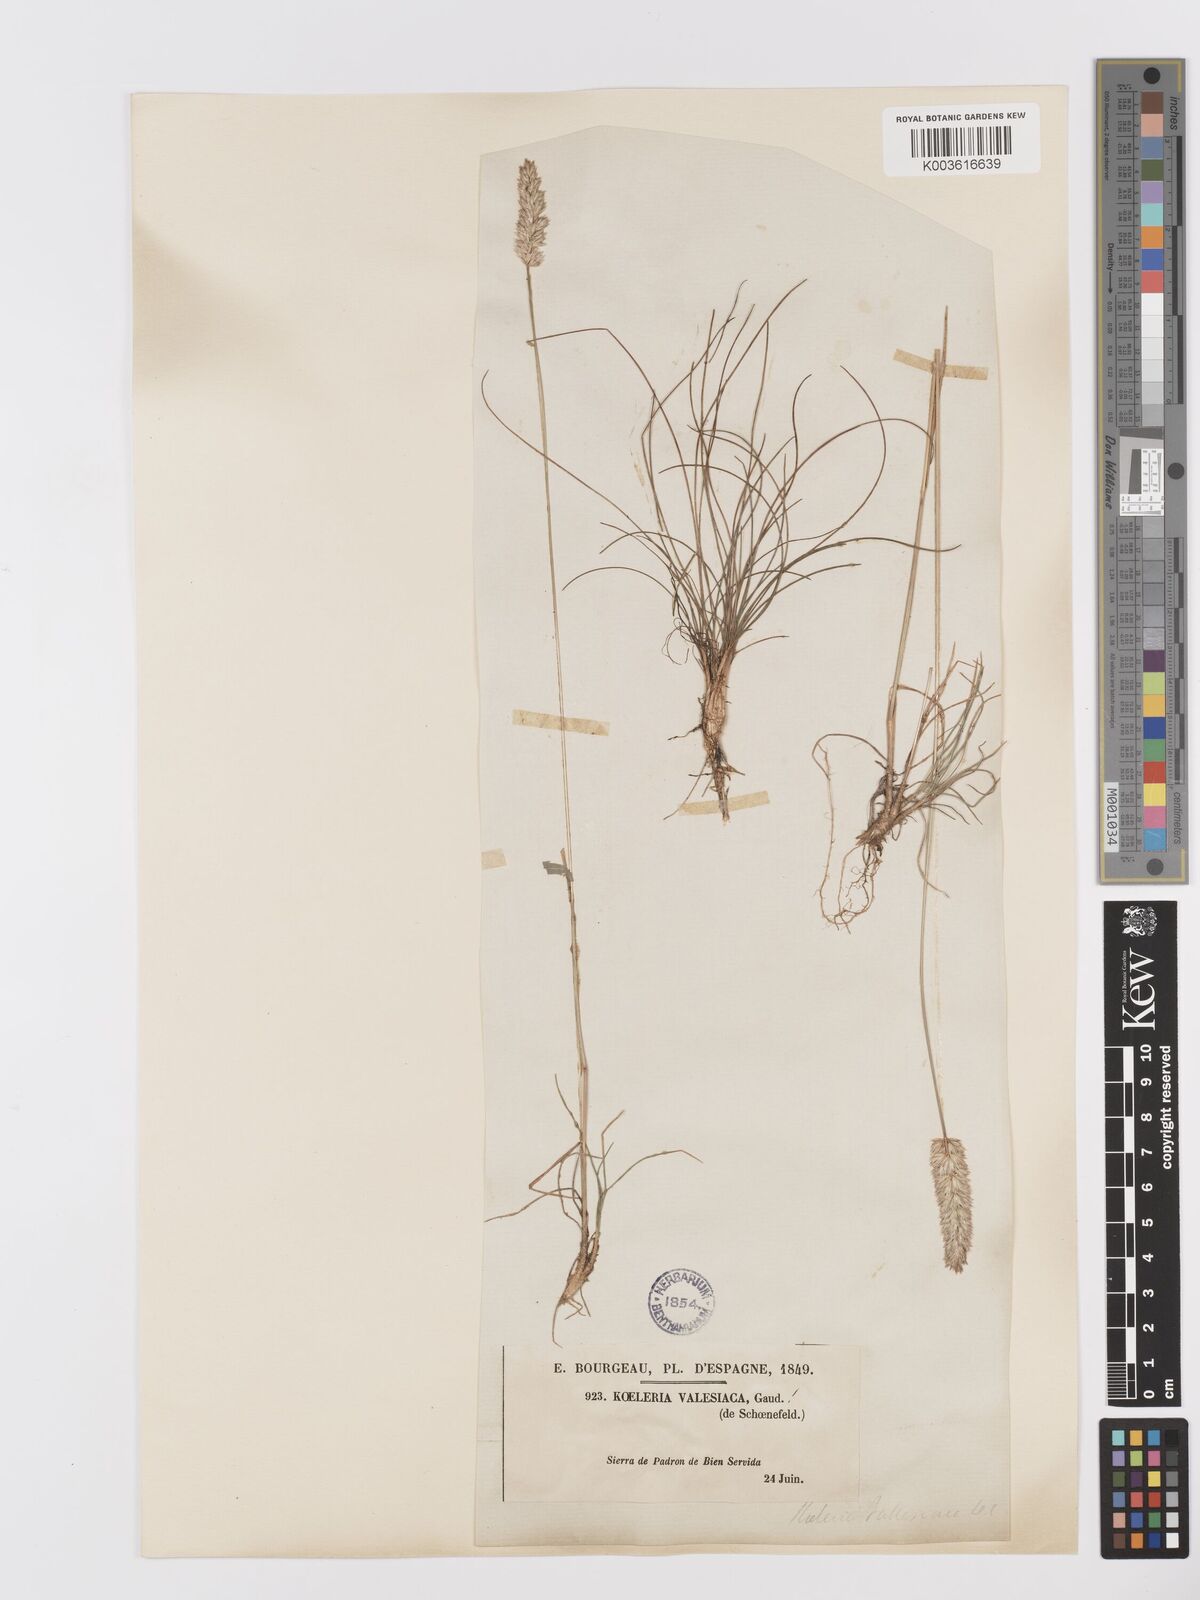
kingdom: Plantae
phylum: Tracheophyta
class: Liliopsida
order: Poales
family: Poaceae
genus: Koeleria
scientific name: Koeleria vallesiana
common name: Somerset hair-grass
